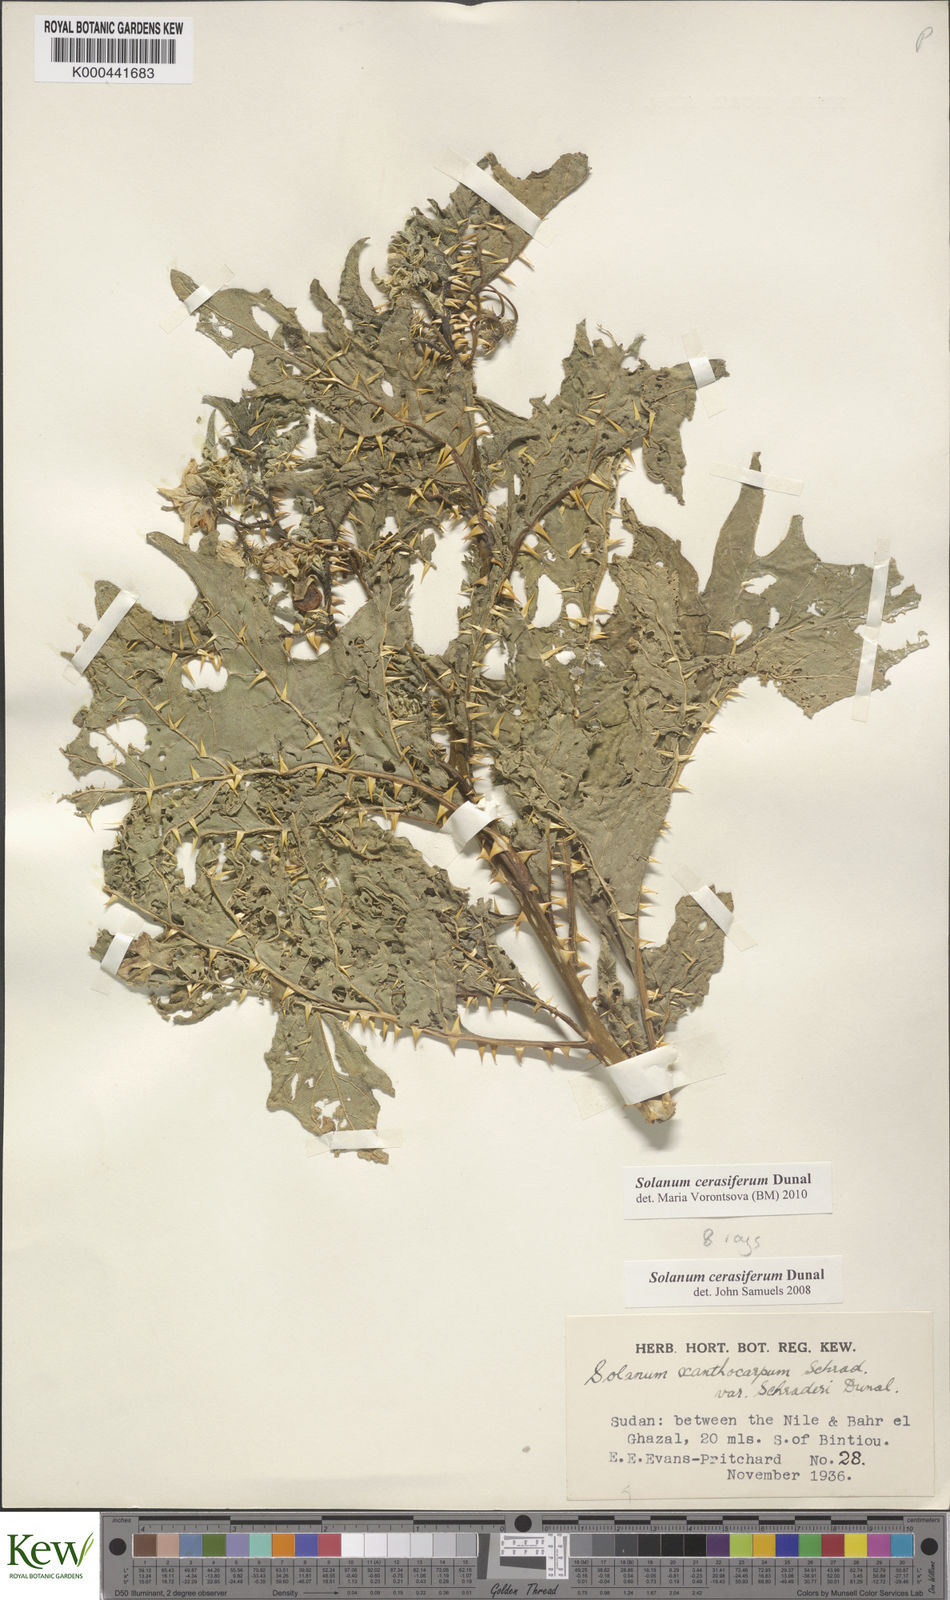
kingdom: Plantae
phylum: Tracheophyta
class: Magnoliopsida
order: Solanales
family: Solanaceae
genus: Solanum
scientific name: Solanum cerasiferum
